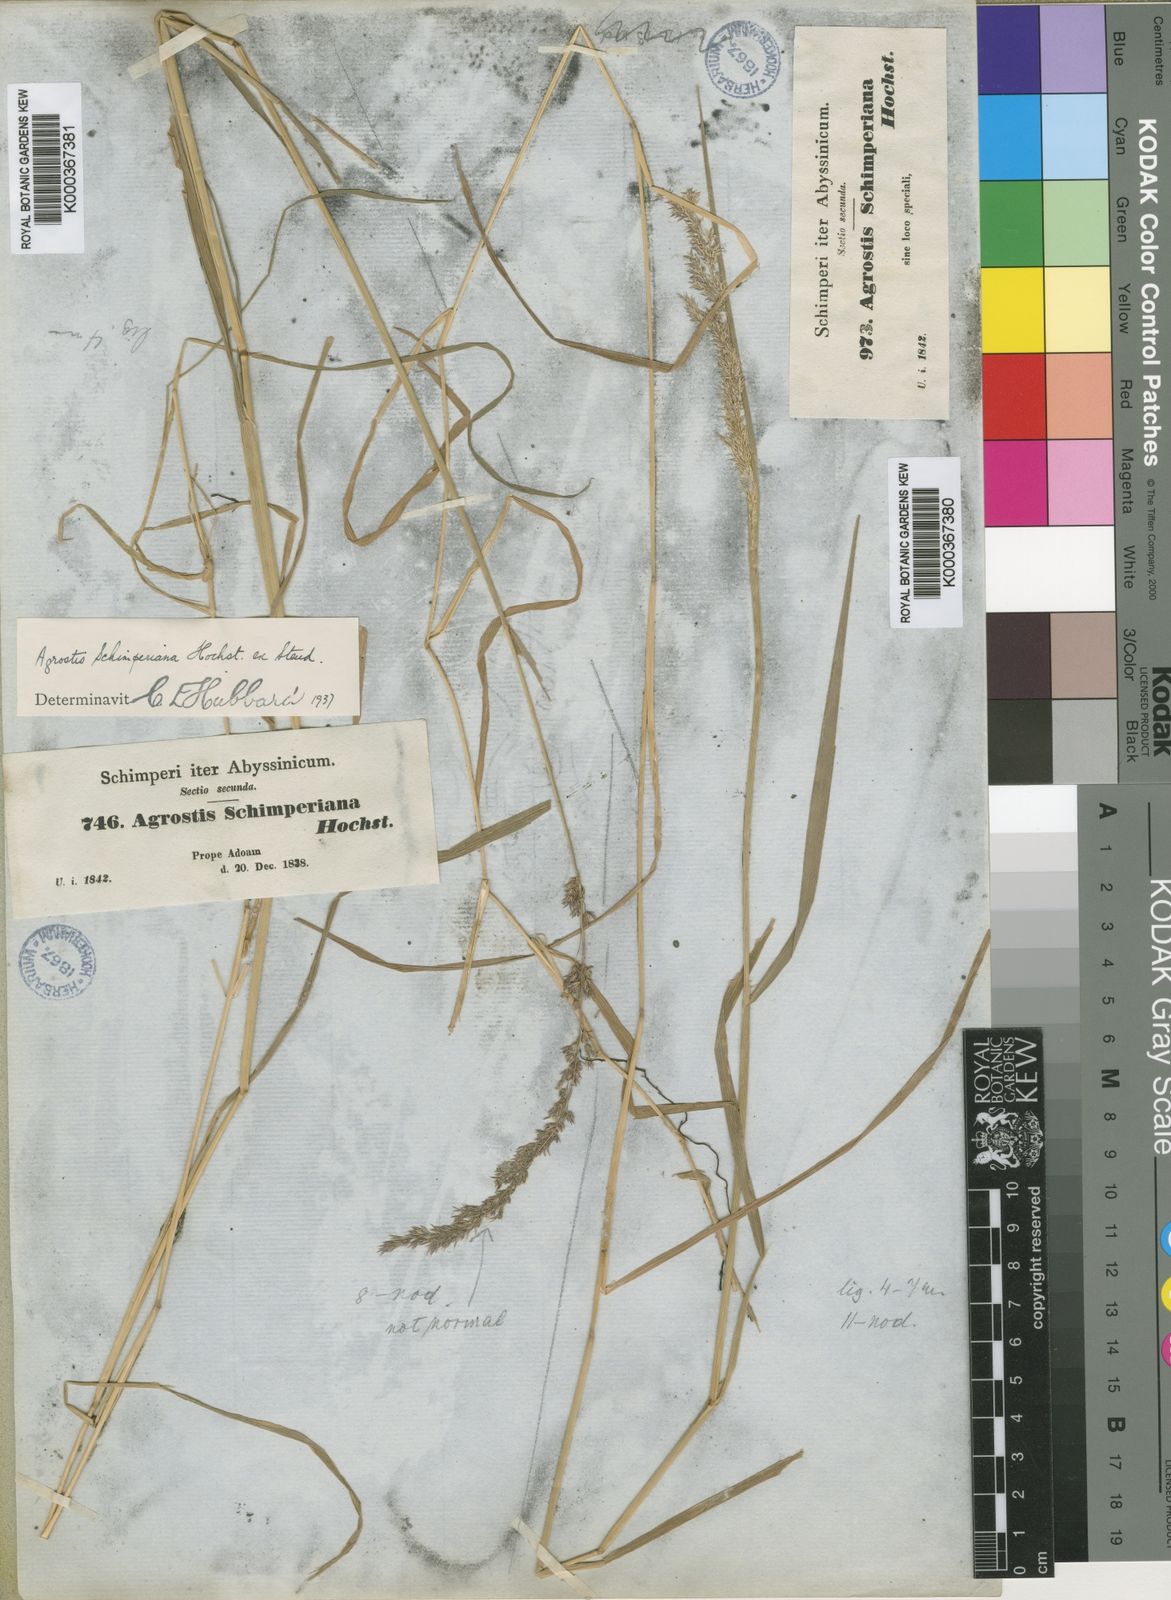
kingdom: Plantae
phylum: Tracheophyta
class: Liliopsida
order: Poales
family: Poaceae
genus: Polypogon
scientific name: Polypogon schimperianus
